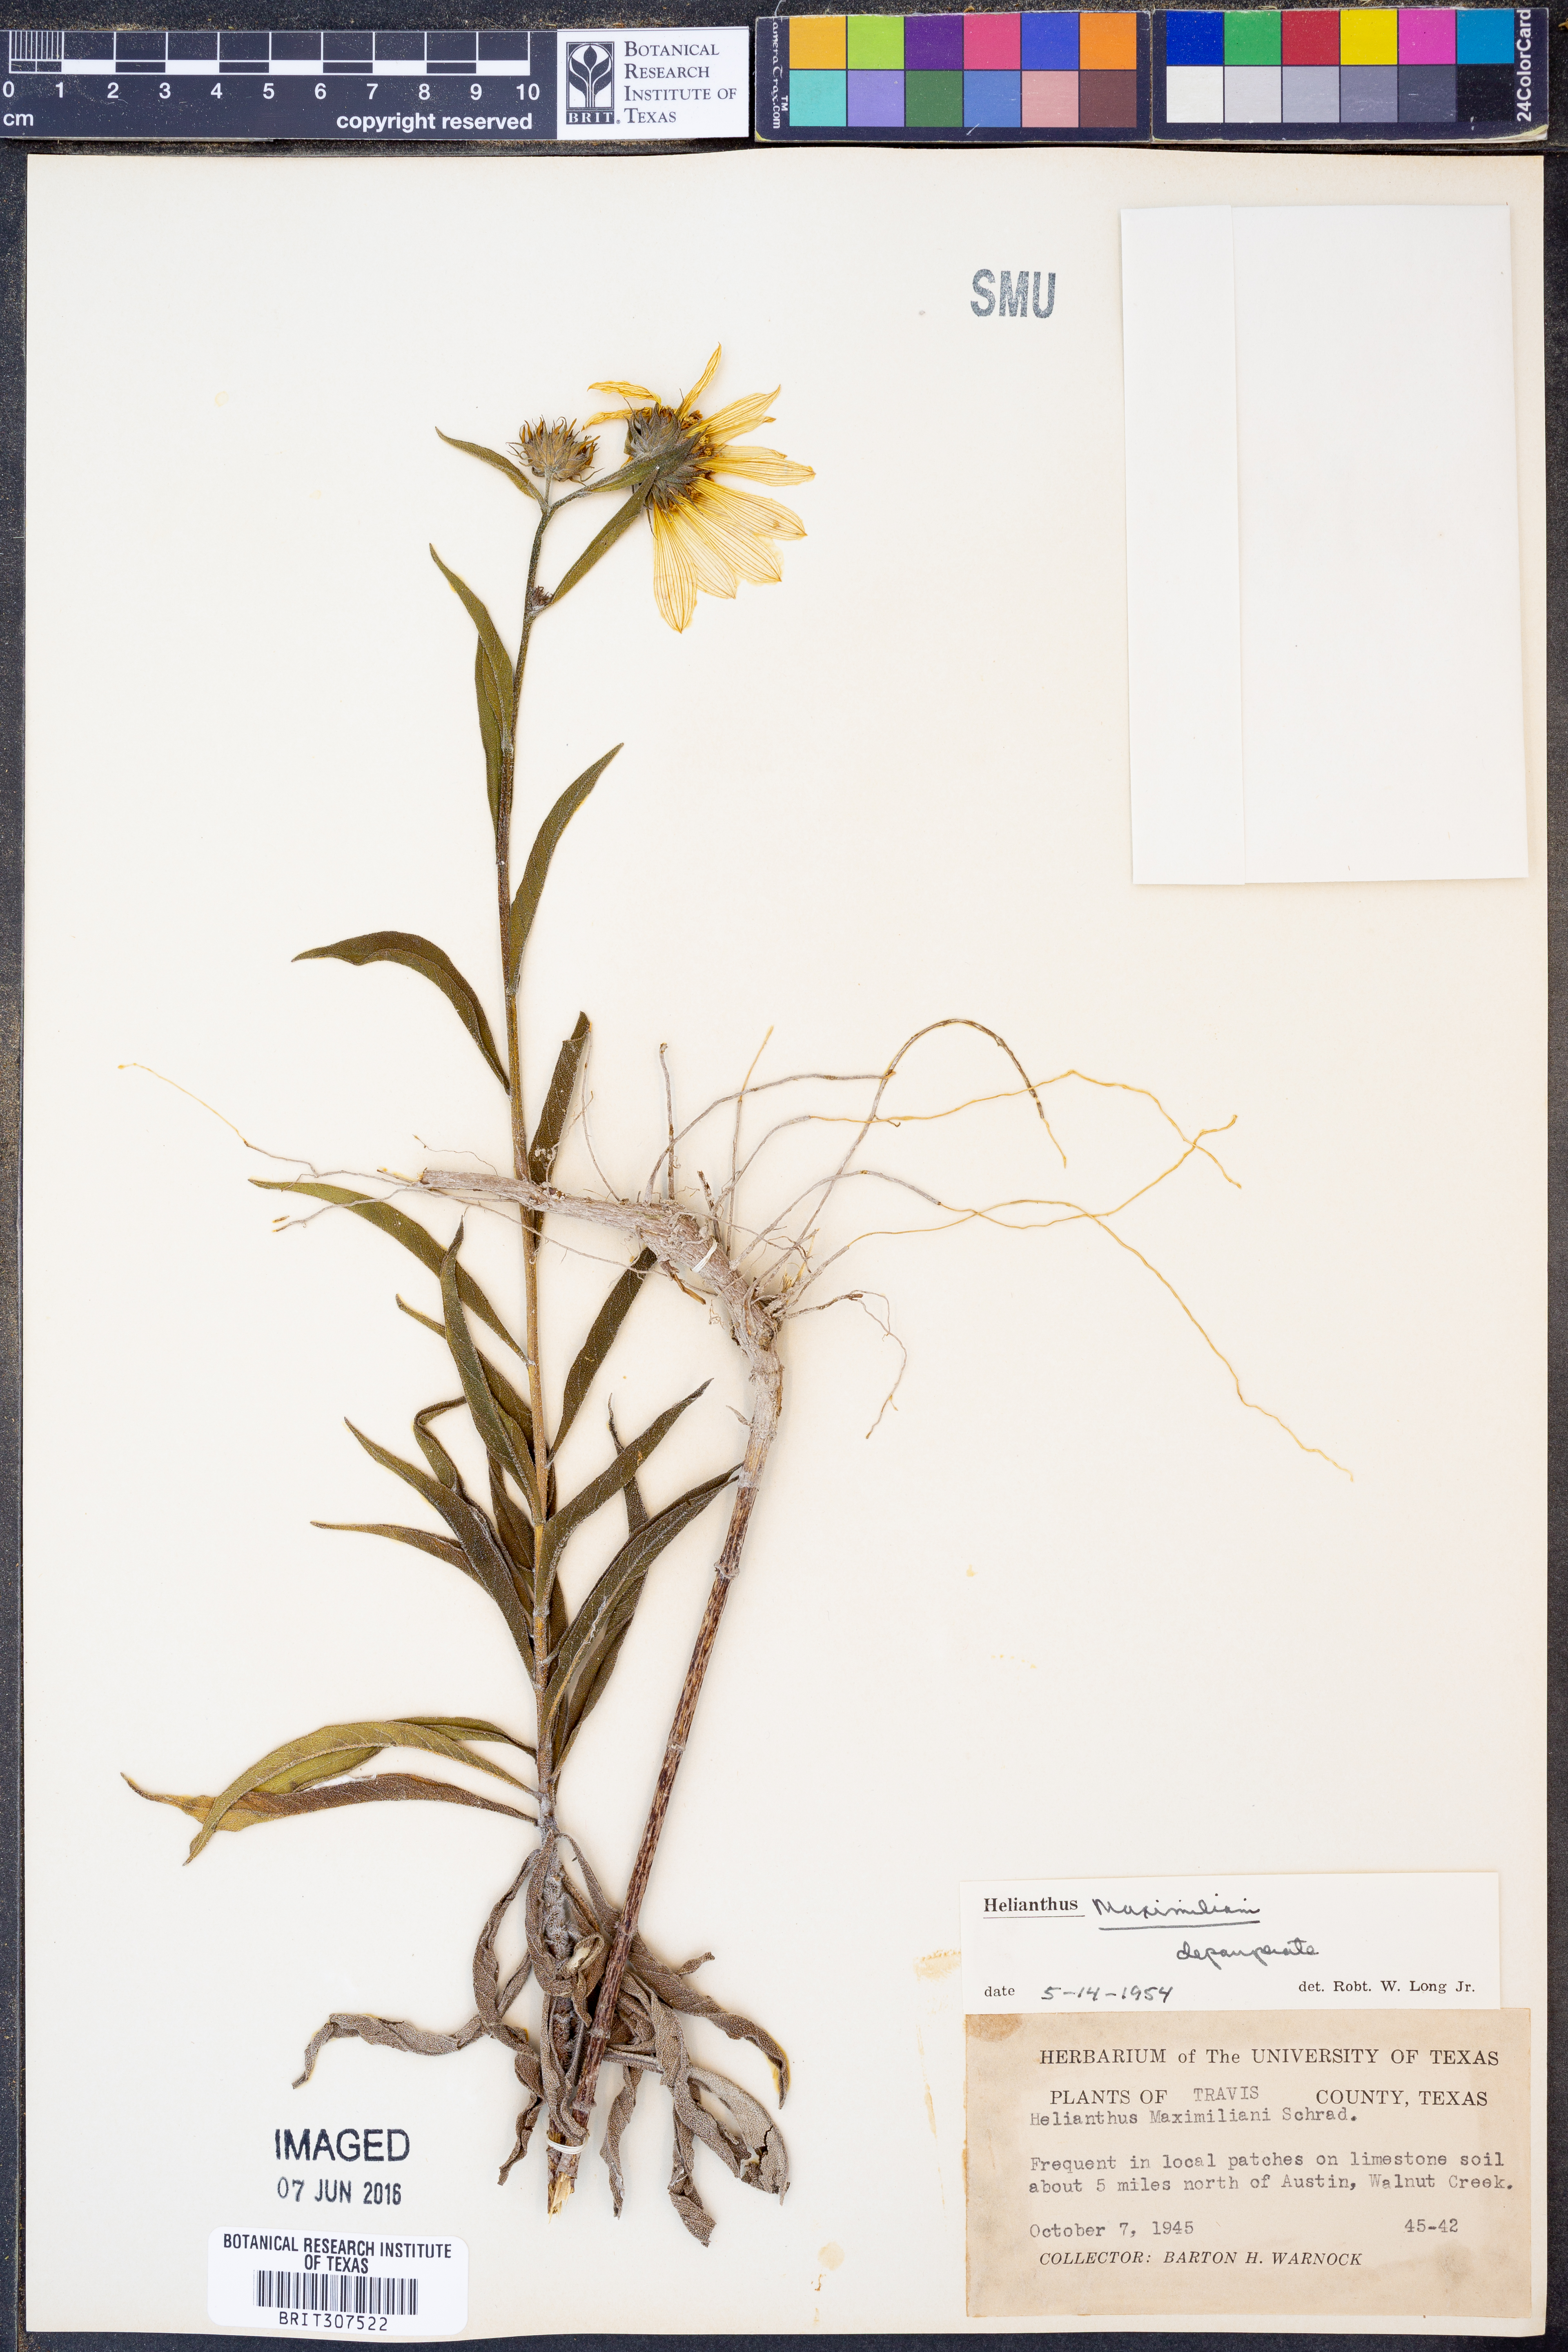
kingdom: Plantae
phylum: Tracheophyta
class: Magnoliopsida
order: Asterales
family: Asteraceae
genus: Helianthus
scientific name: Helianthus maximiliani
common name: Maximilian's sunflower
